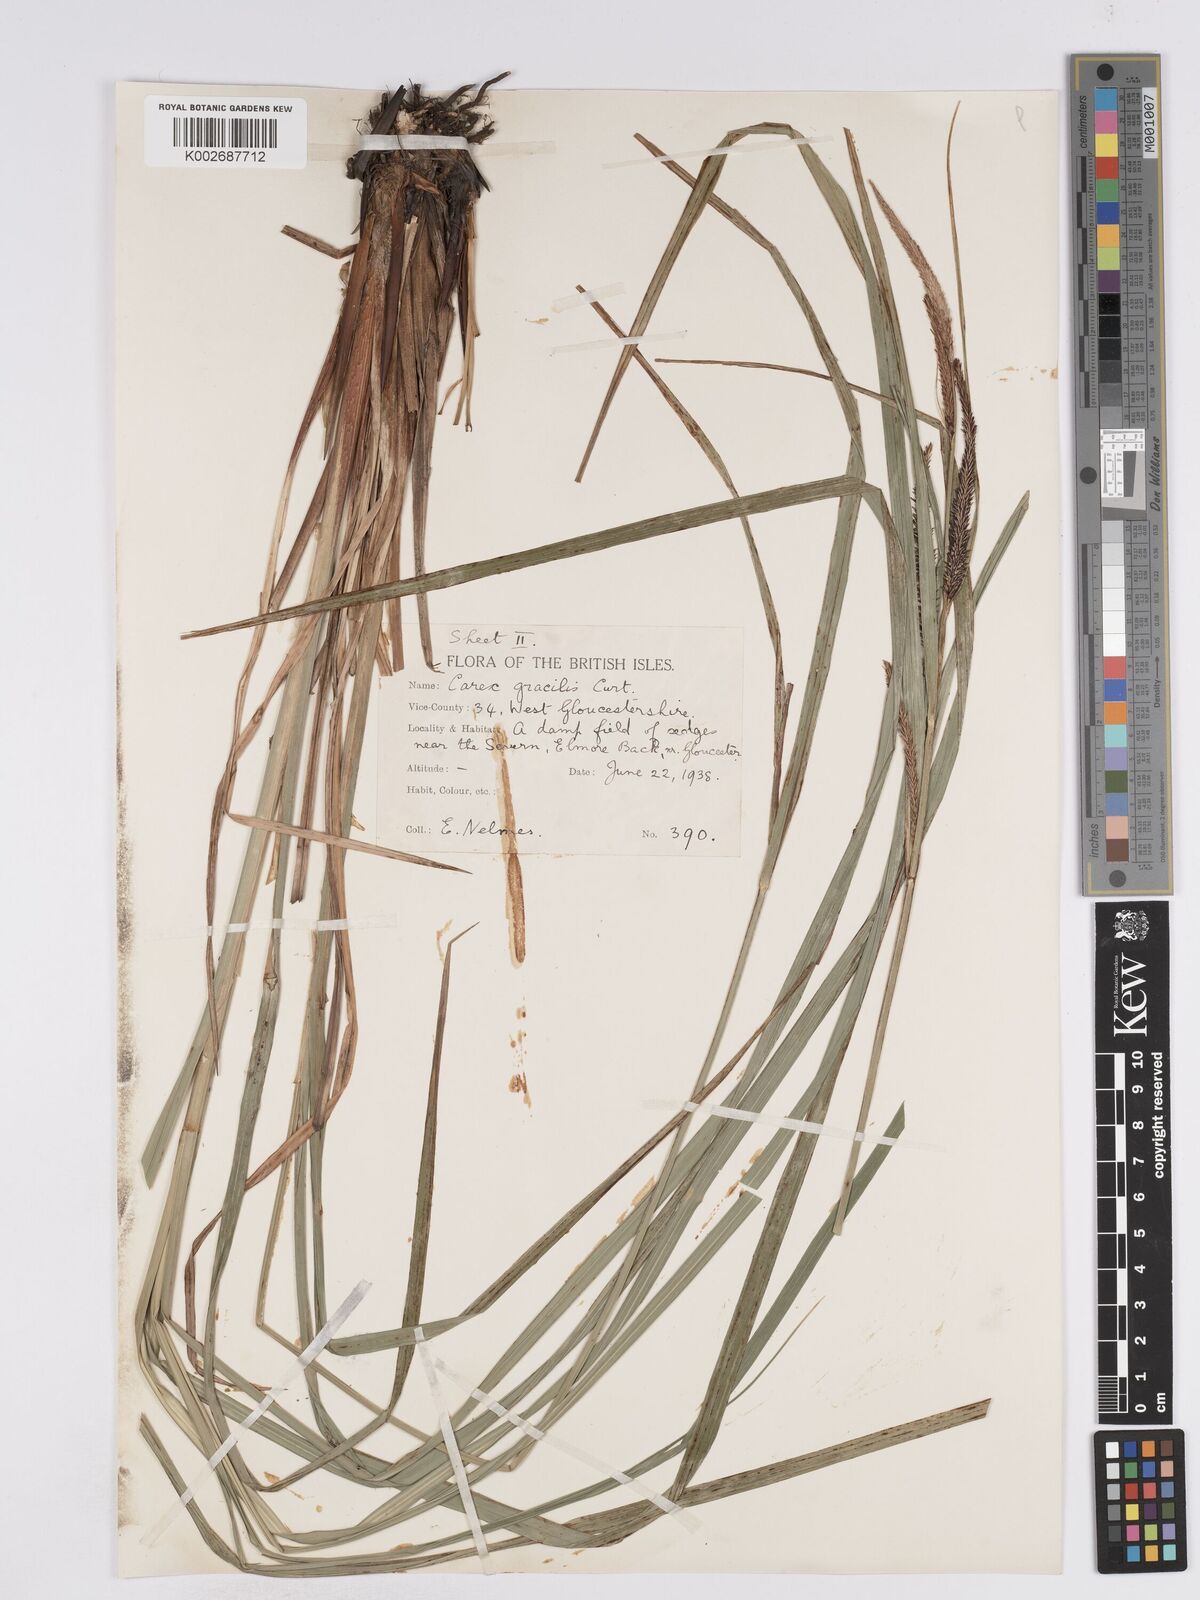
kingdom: Plantae
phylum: Tracheophyta
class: Liliopsida
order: Poales
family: Cyperaceae
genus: Carex
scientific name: Carex acuta
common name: Slender tufted-sedge
